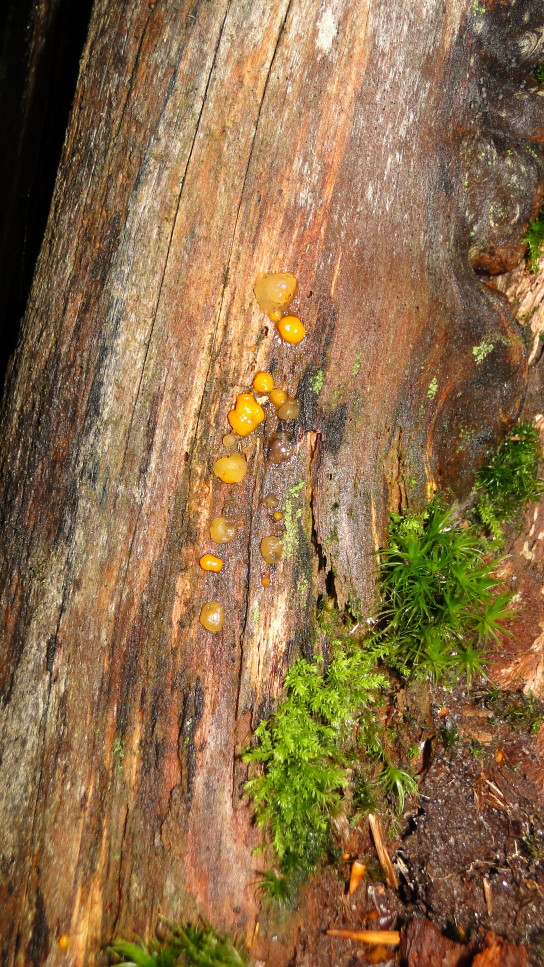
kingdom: Fungi
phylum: Basidiomycota
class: Dacrymycetes
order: Dacrymycetales
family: Dacrymycetaceae
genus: Dacrymyces
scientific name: Dacrymyces stillatus
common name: almindelig tåresvamp
